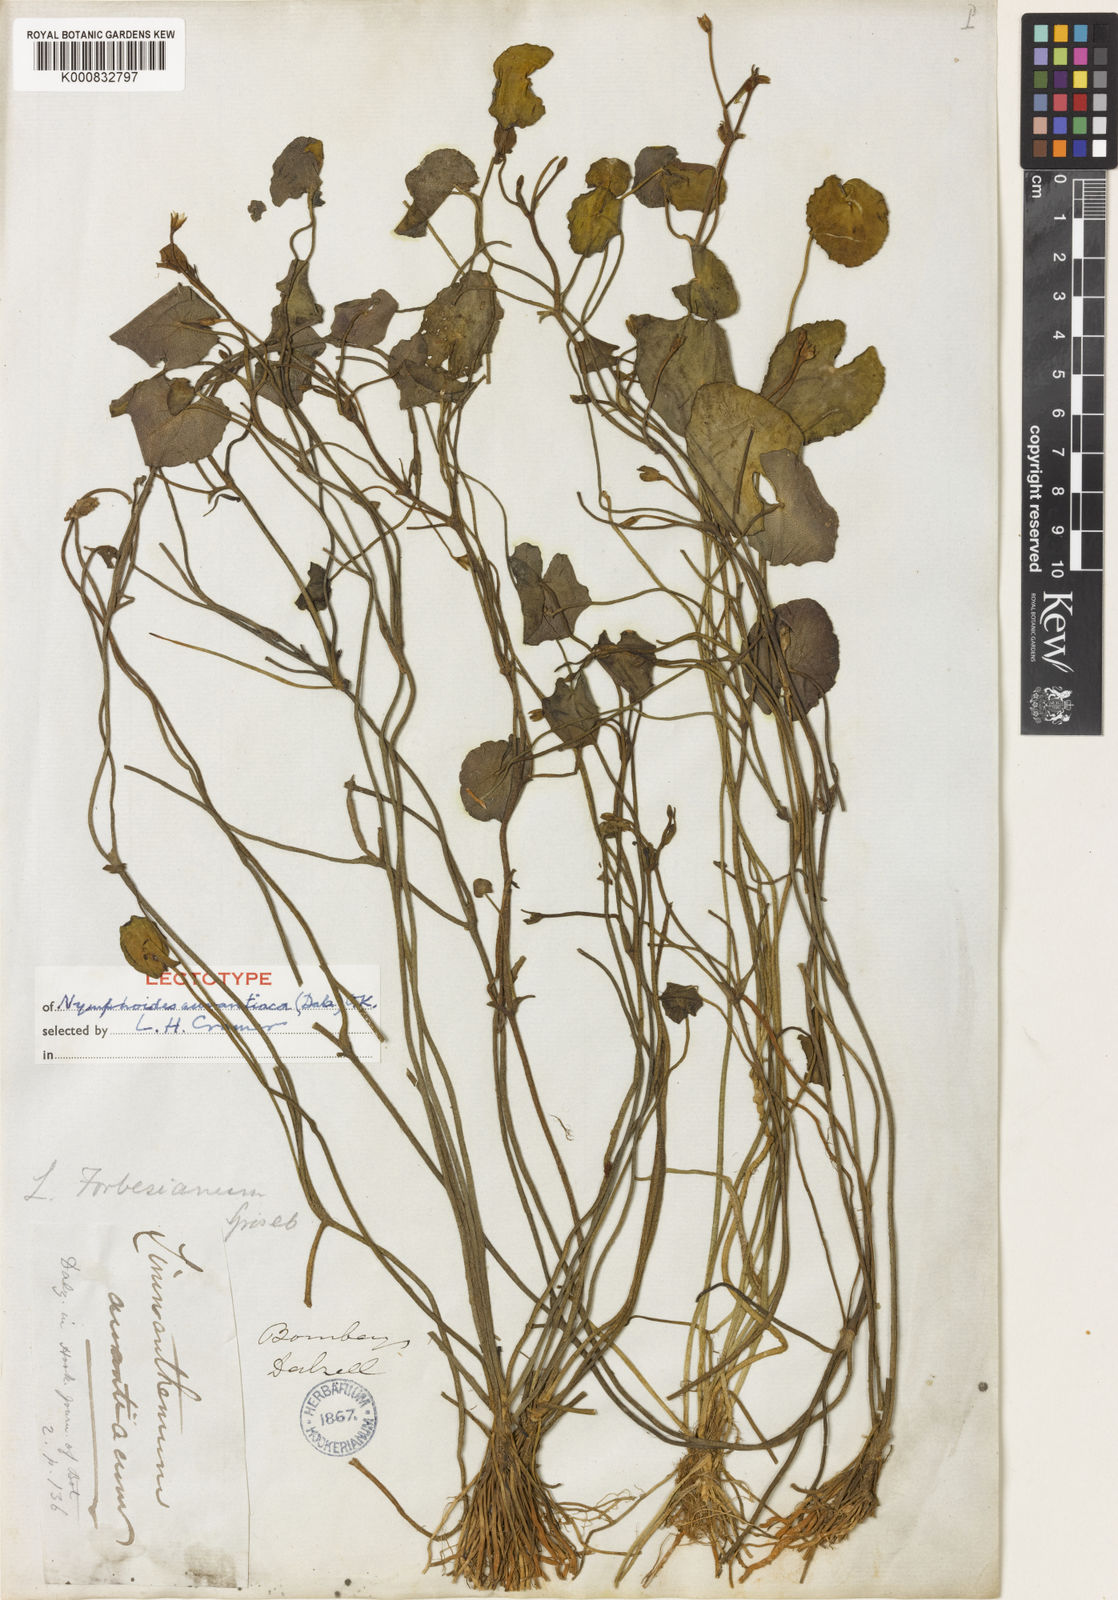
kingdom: Plantae
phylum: Tracheophyta
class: Magnoliopsida
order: Asterales
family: Menyanthaceae
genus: Nymphoides
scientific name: Nymphoides aurantiaca
